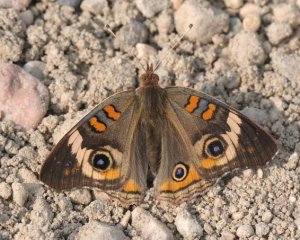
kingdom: Animalia
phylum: Arthropoda
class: Insecta
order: Lepidoptera
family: Nymphalidae
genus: Junonia
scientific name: Junonia coenia
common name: Common Buckeye
